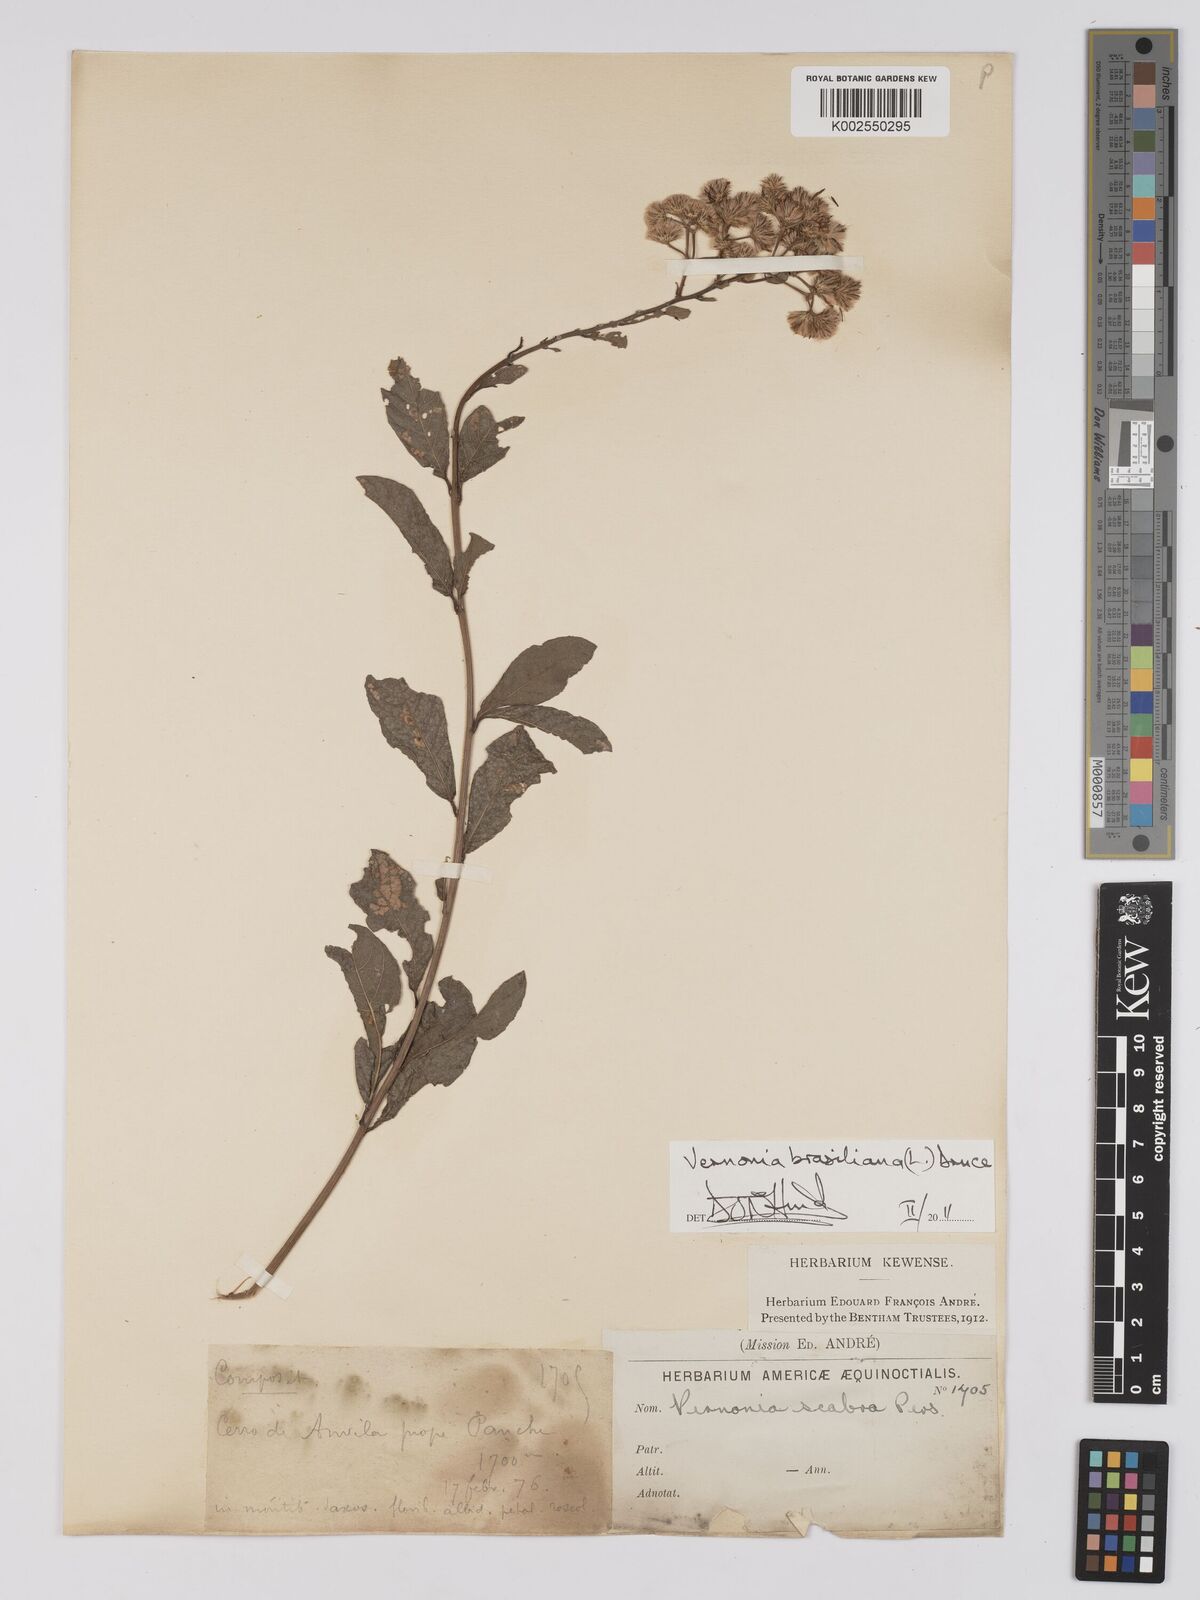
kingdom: Plantae
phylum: Tracheophyta
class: Magnoliopsida
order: Asterales
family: Asteraceae
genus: Vernonanthura
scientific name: Vernonanthura brasiliana
